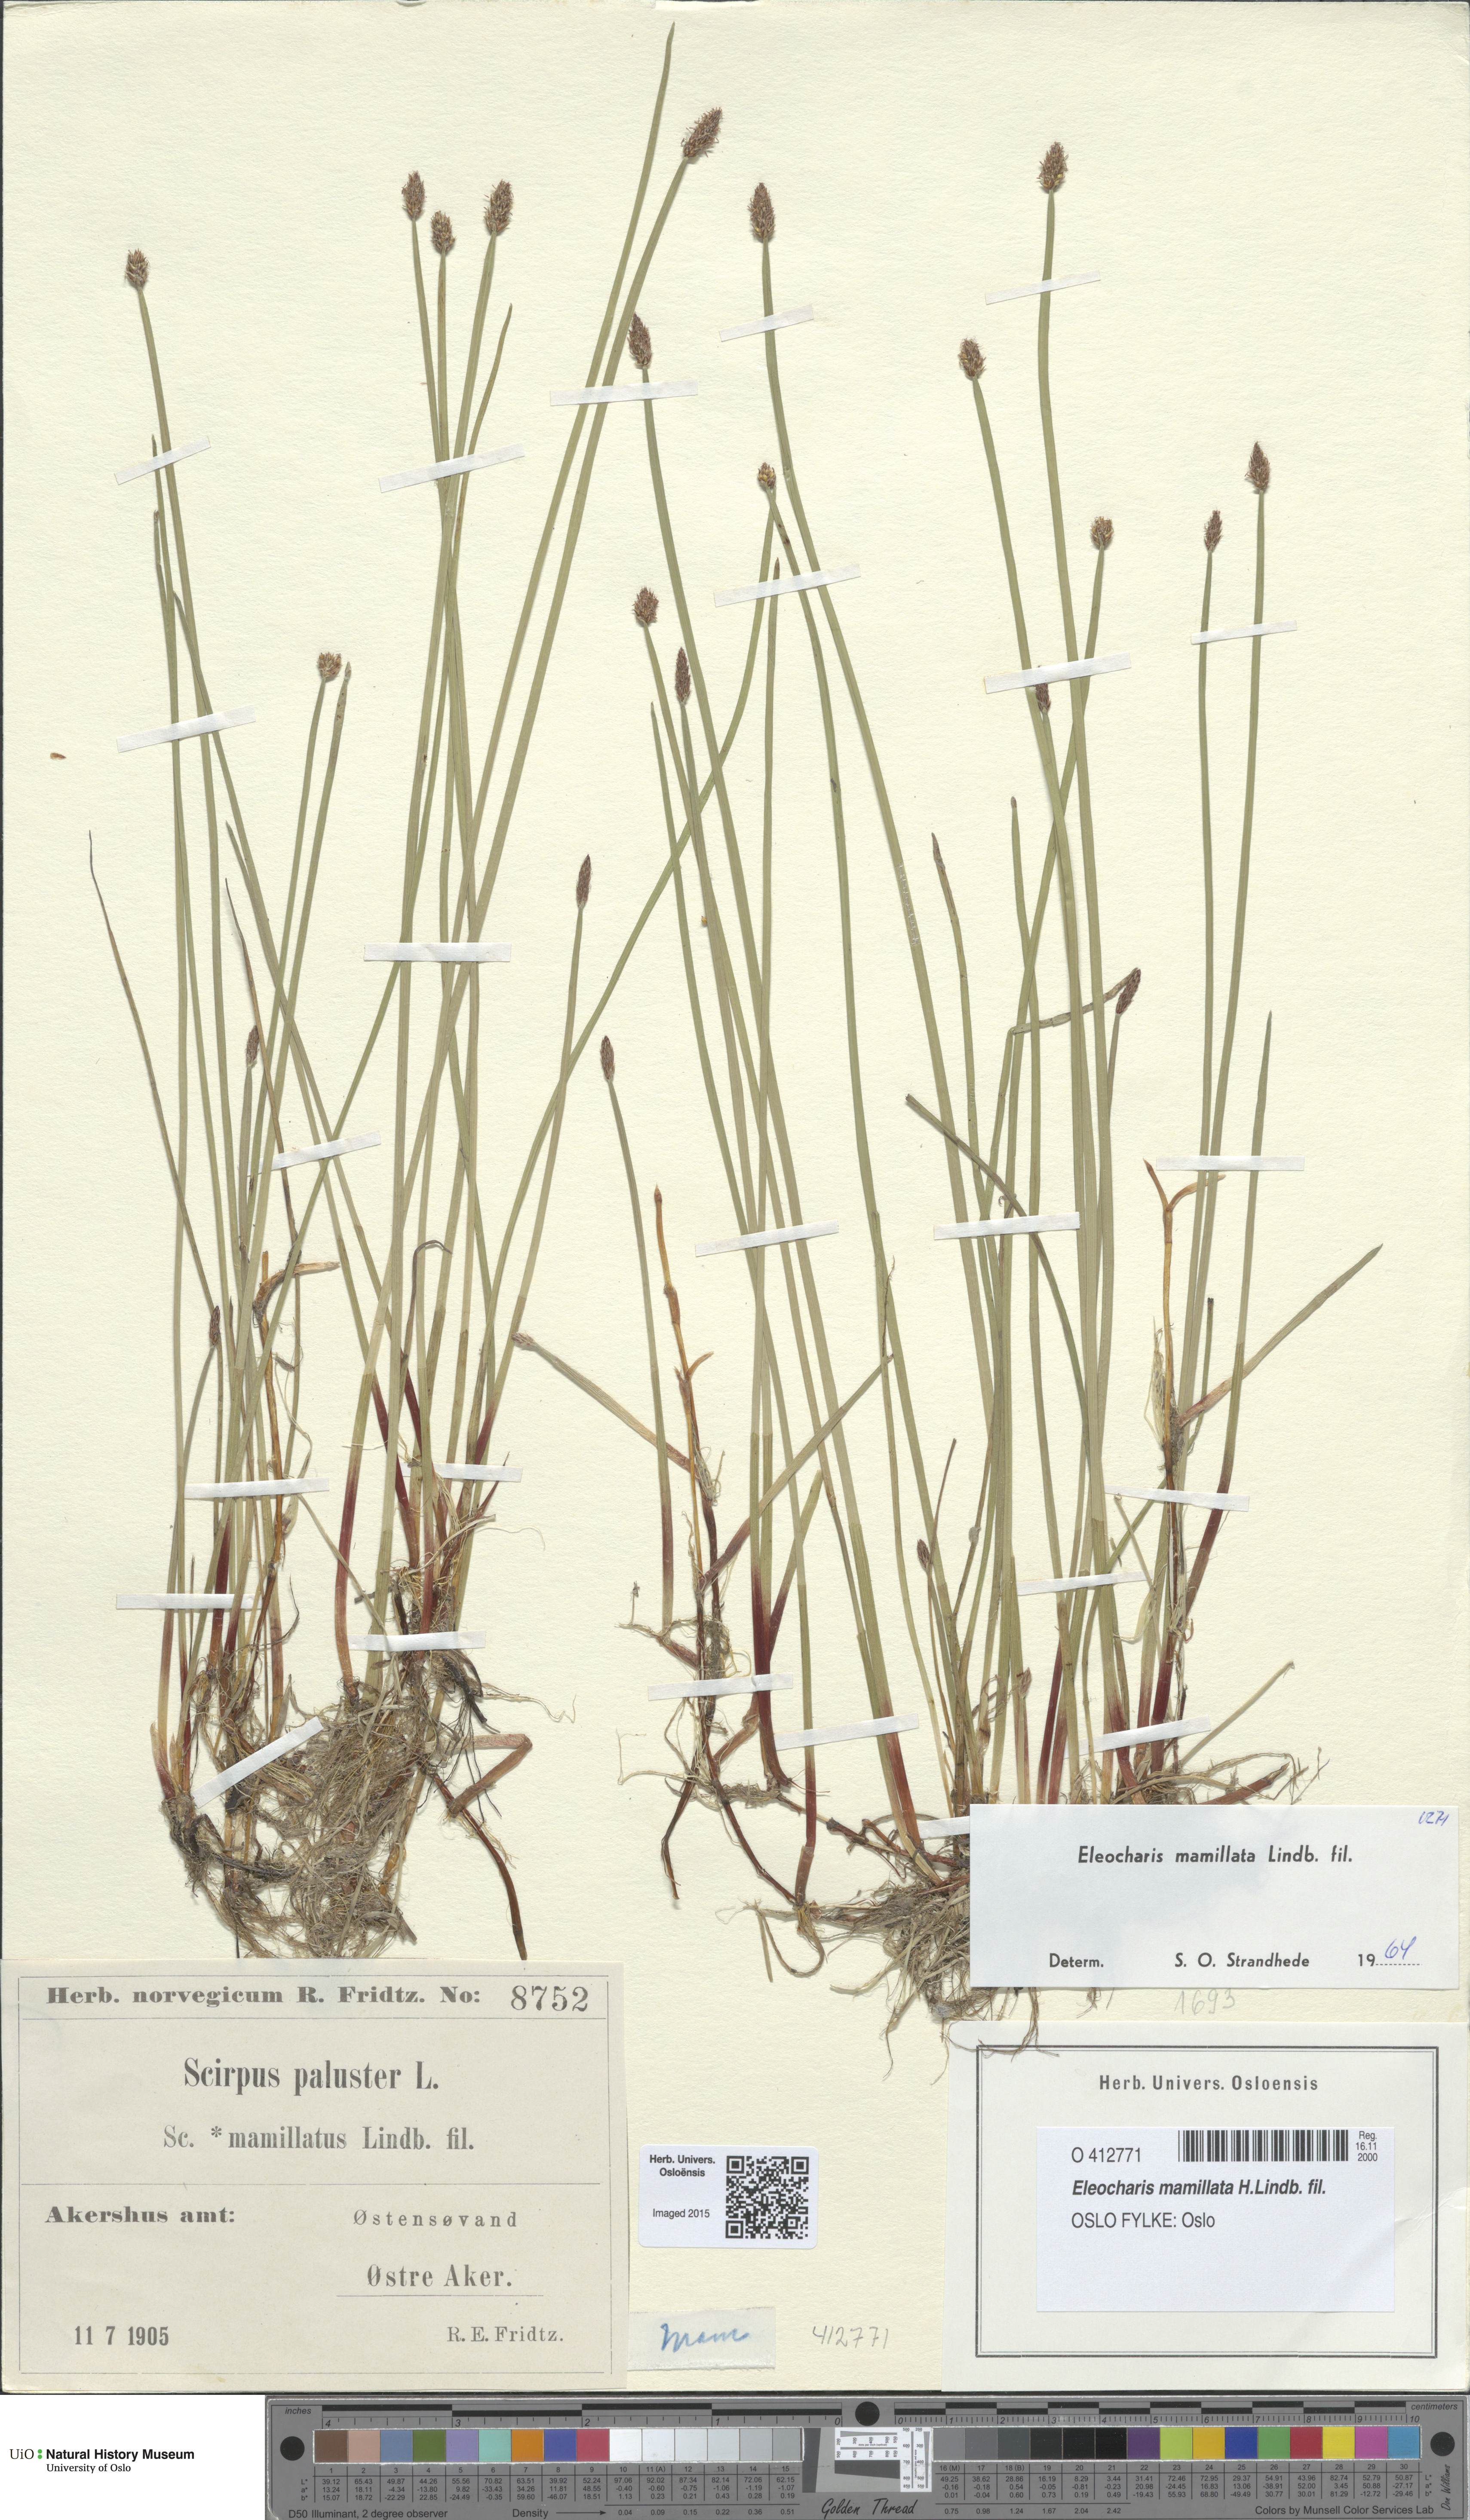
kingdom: Plantae
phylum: Tracheophyta
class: Liliopsida
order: Poales
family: Cyperaceae
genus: Eleocharis
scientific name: Eleocharis mamillata
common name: Northern spike-rush
